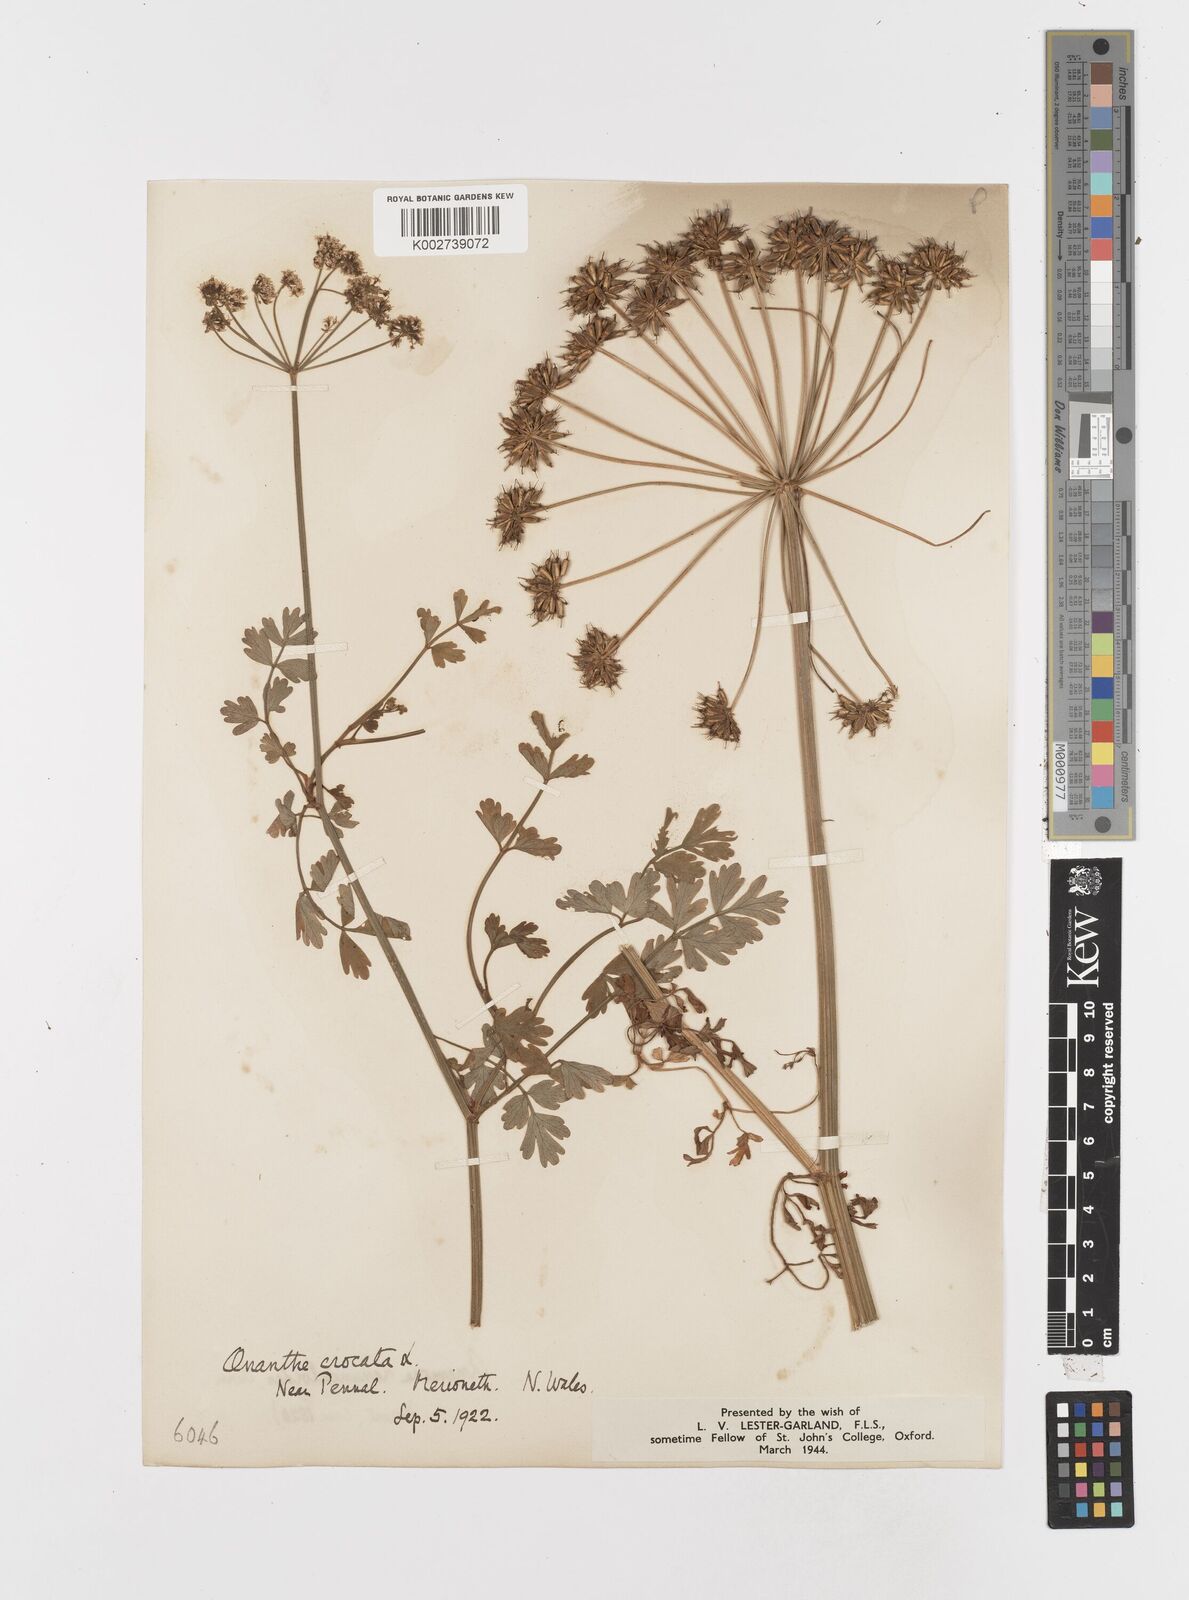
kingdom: Plantae
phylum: Tracheophyta
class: Magnoliopsida
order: Apiales
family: Apiaceae
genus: Oenanthe
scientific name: Oenanthe crocata
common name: Hemlock water-dropwort
